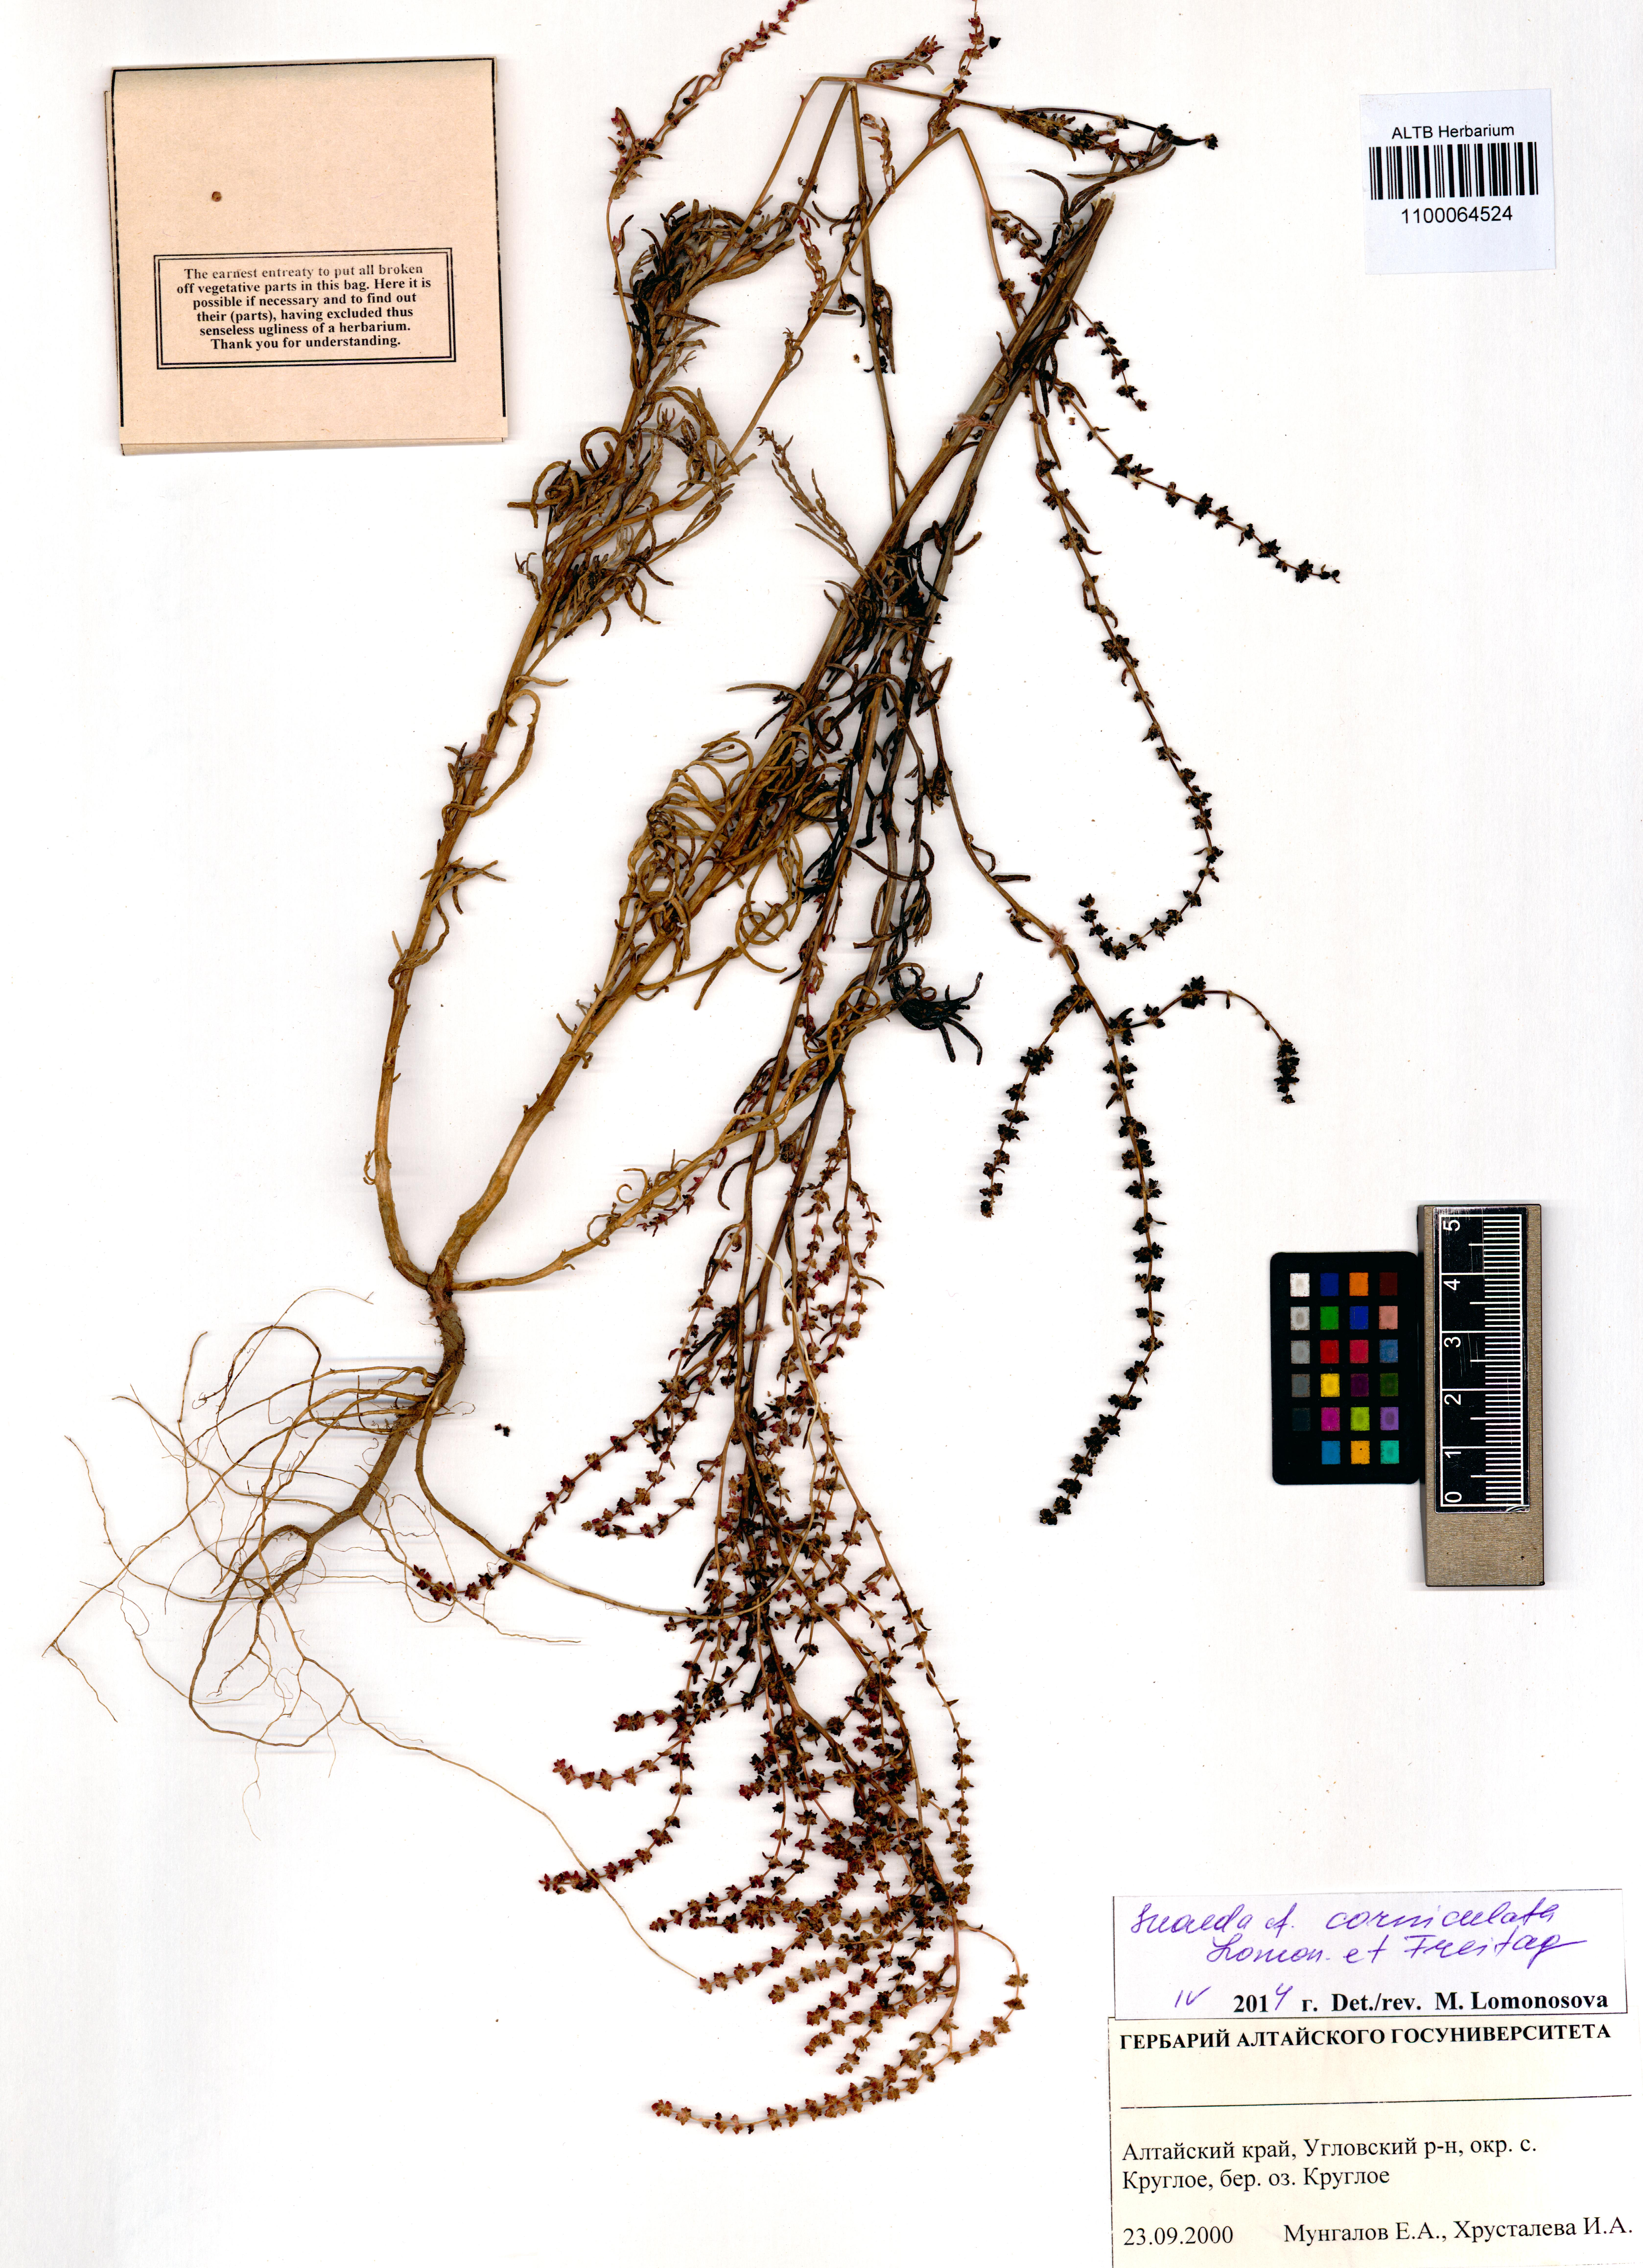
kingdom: Plantae
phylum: Tracheophyta
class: Magnoliopsida
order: Caryophyllales
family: Amaranthaceae
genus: Suaeda
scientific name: Suaeda corniculata
